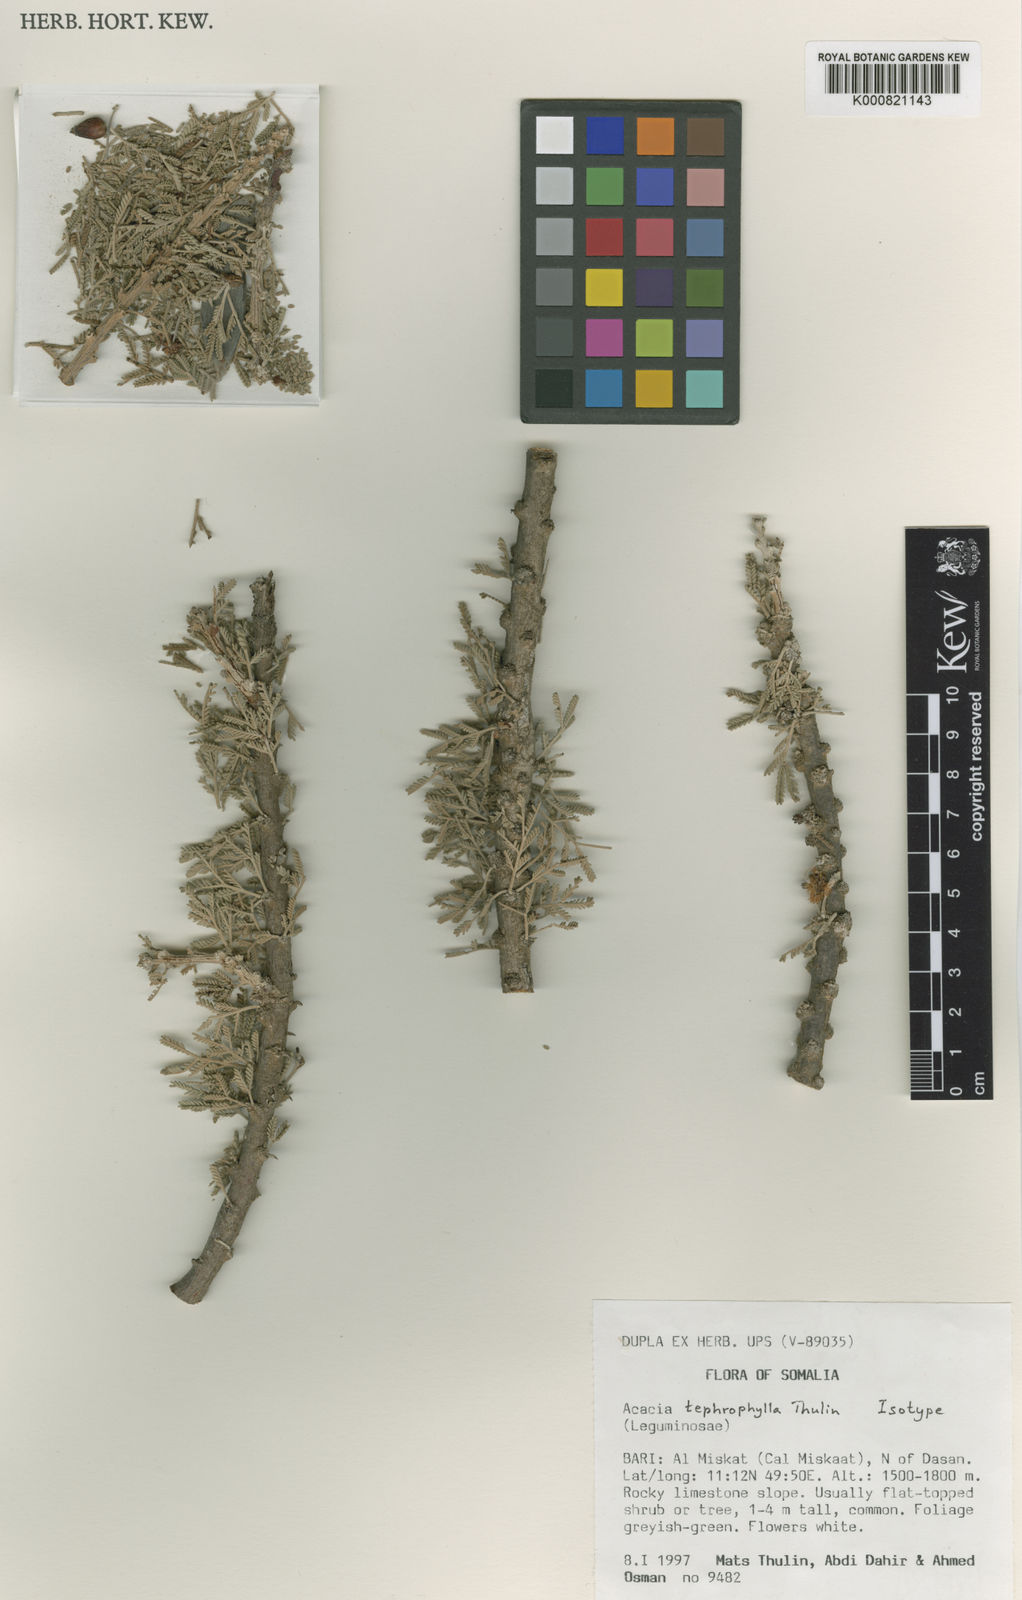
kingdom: Plantae
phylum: Tracheophyta
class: Magnoliopsida
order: Fabales
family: Fabaceae
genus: Vachellia
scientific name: Vachellia tephrophylla
